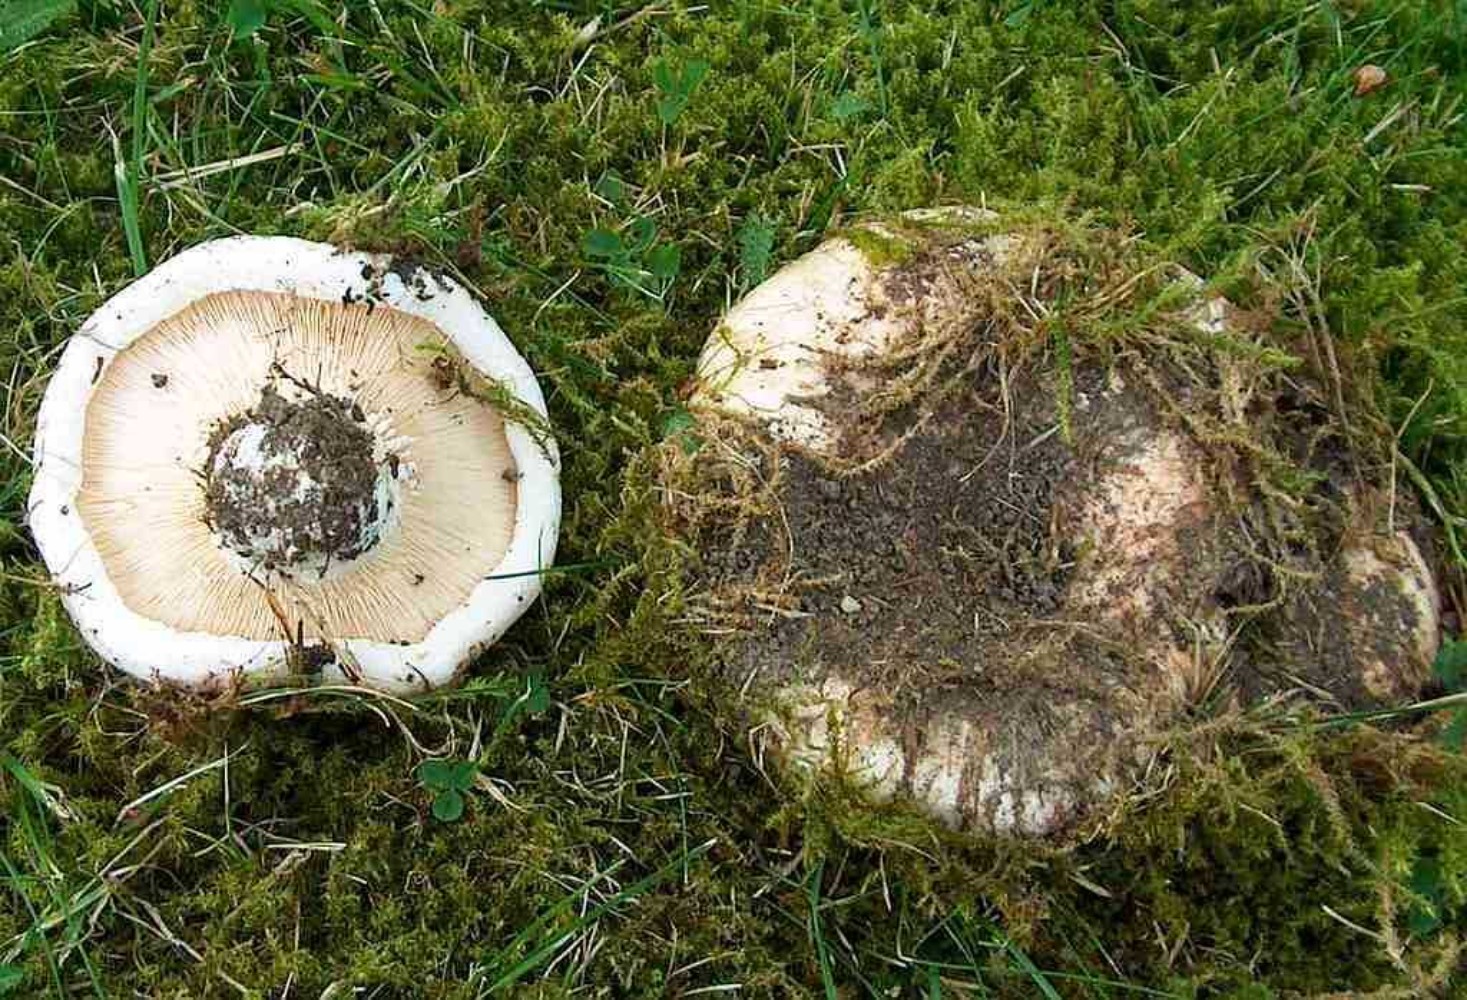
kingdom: Fungi
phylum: Basidiomycota
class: Agaricomycetes
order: Russulales
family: Russulaceae
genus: Lactarius
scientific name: Lactarius controversus
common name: rosabladet mælkehat
